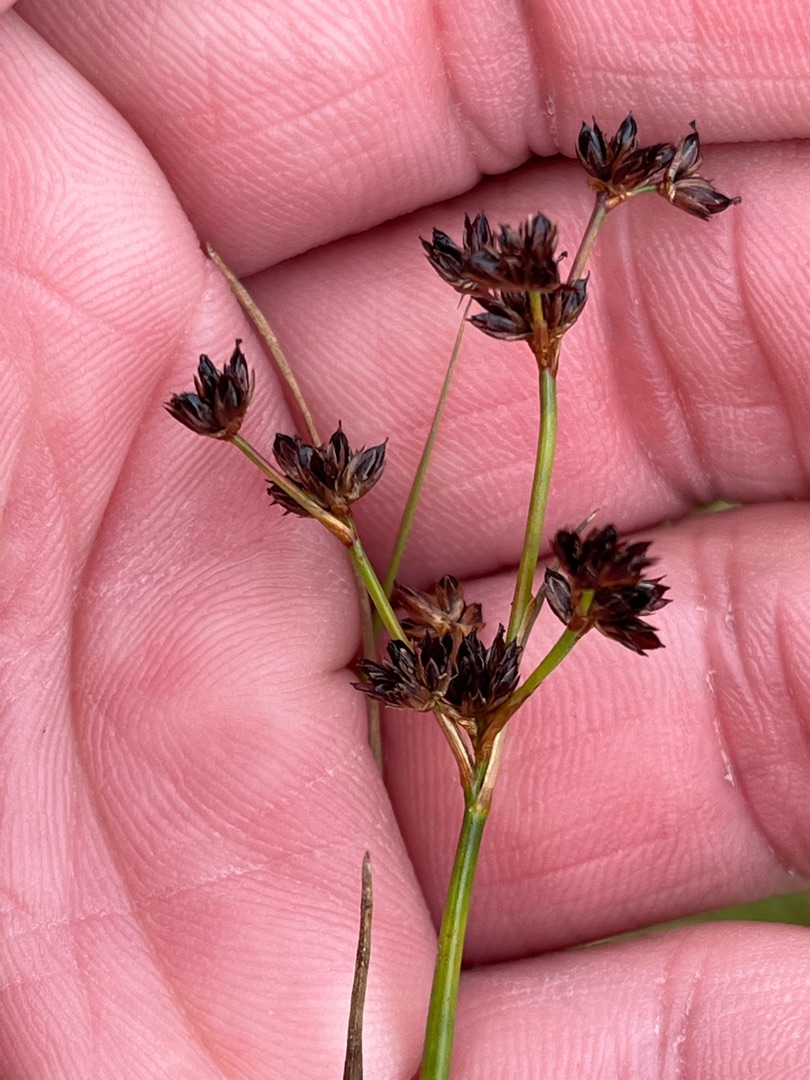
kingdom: Plantae
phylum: Tracheophyta
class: Liliopsida
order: Poales
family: Juncaceae
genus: Juncus
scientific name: Juncus articulatus
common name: Glanskapslet siv
